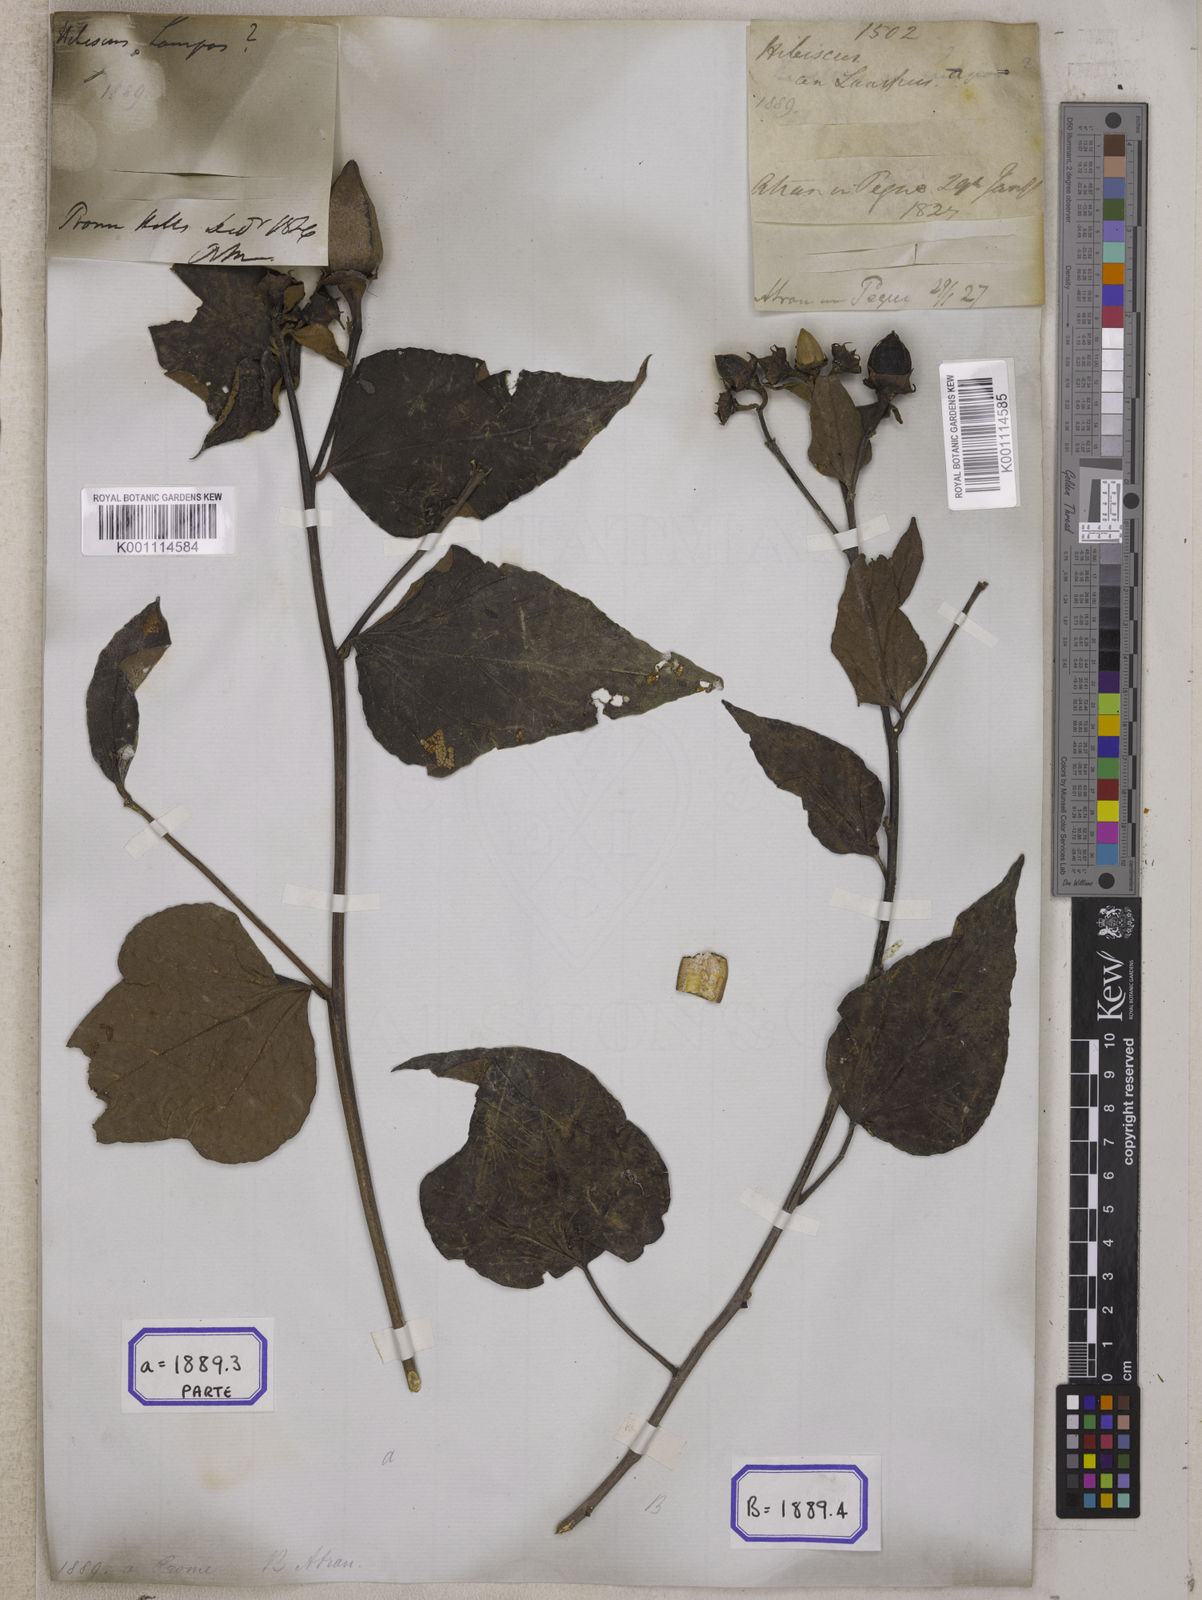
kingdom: Plantae
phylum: Tracheophyta
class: Magnoliopsida
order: Malvales
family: Malvaceae
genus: Thespesia
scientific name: Thespesia lampas
